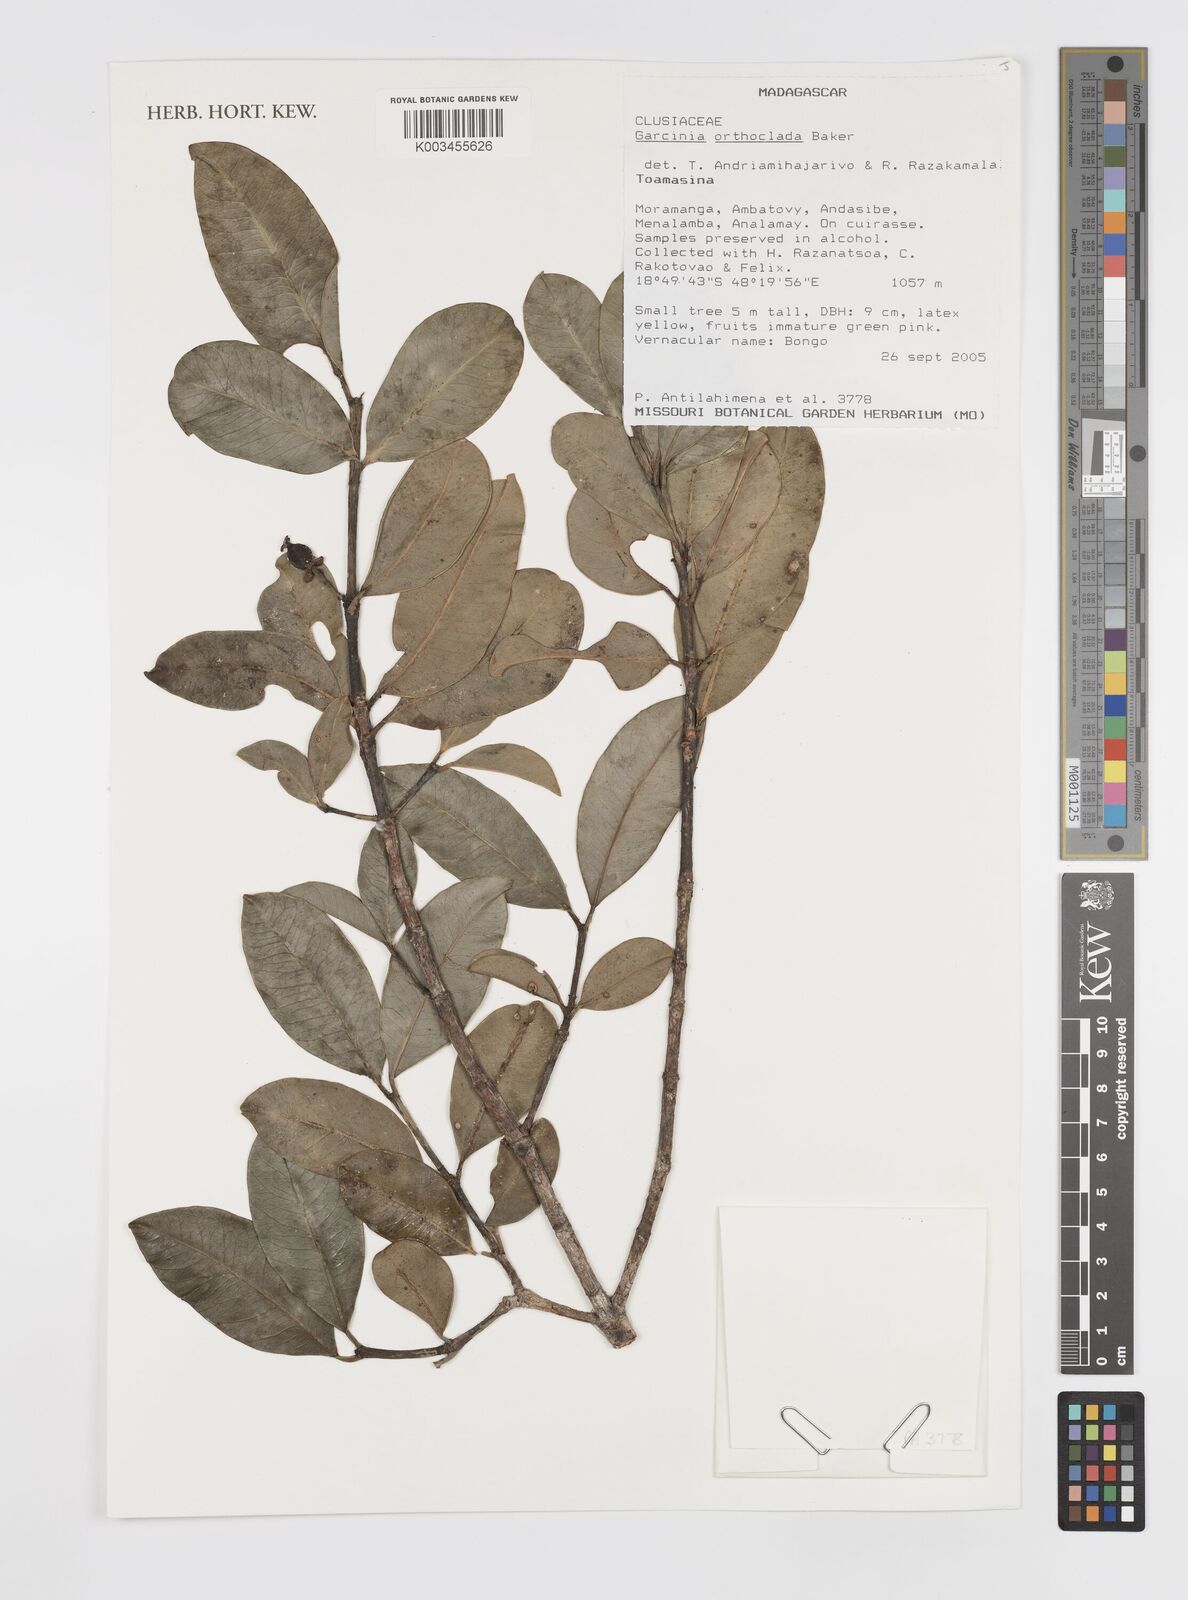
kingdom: Plantae
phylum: Tracheophyta
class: Magnoliopsida
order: Malpighiales
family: Clusiaceae
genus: Garcinia
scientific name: Garcinia orthoclada
